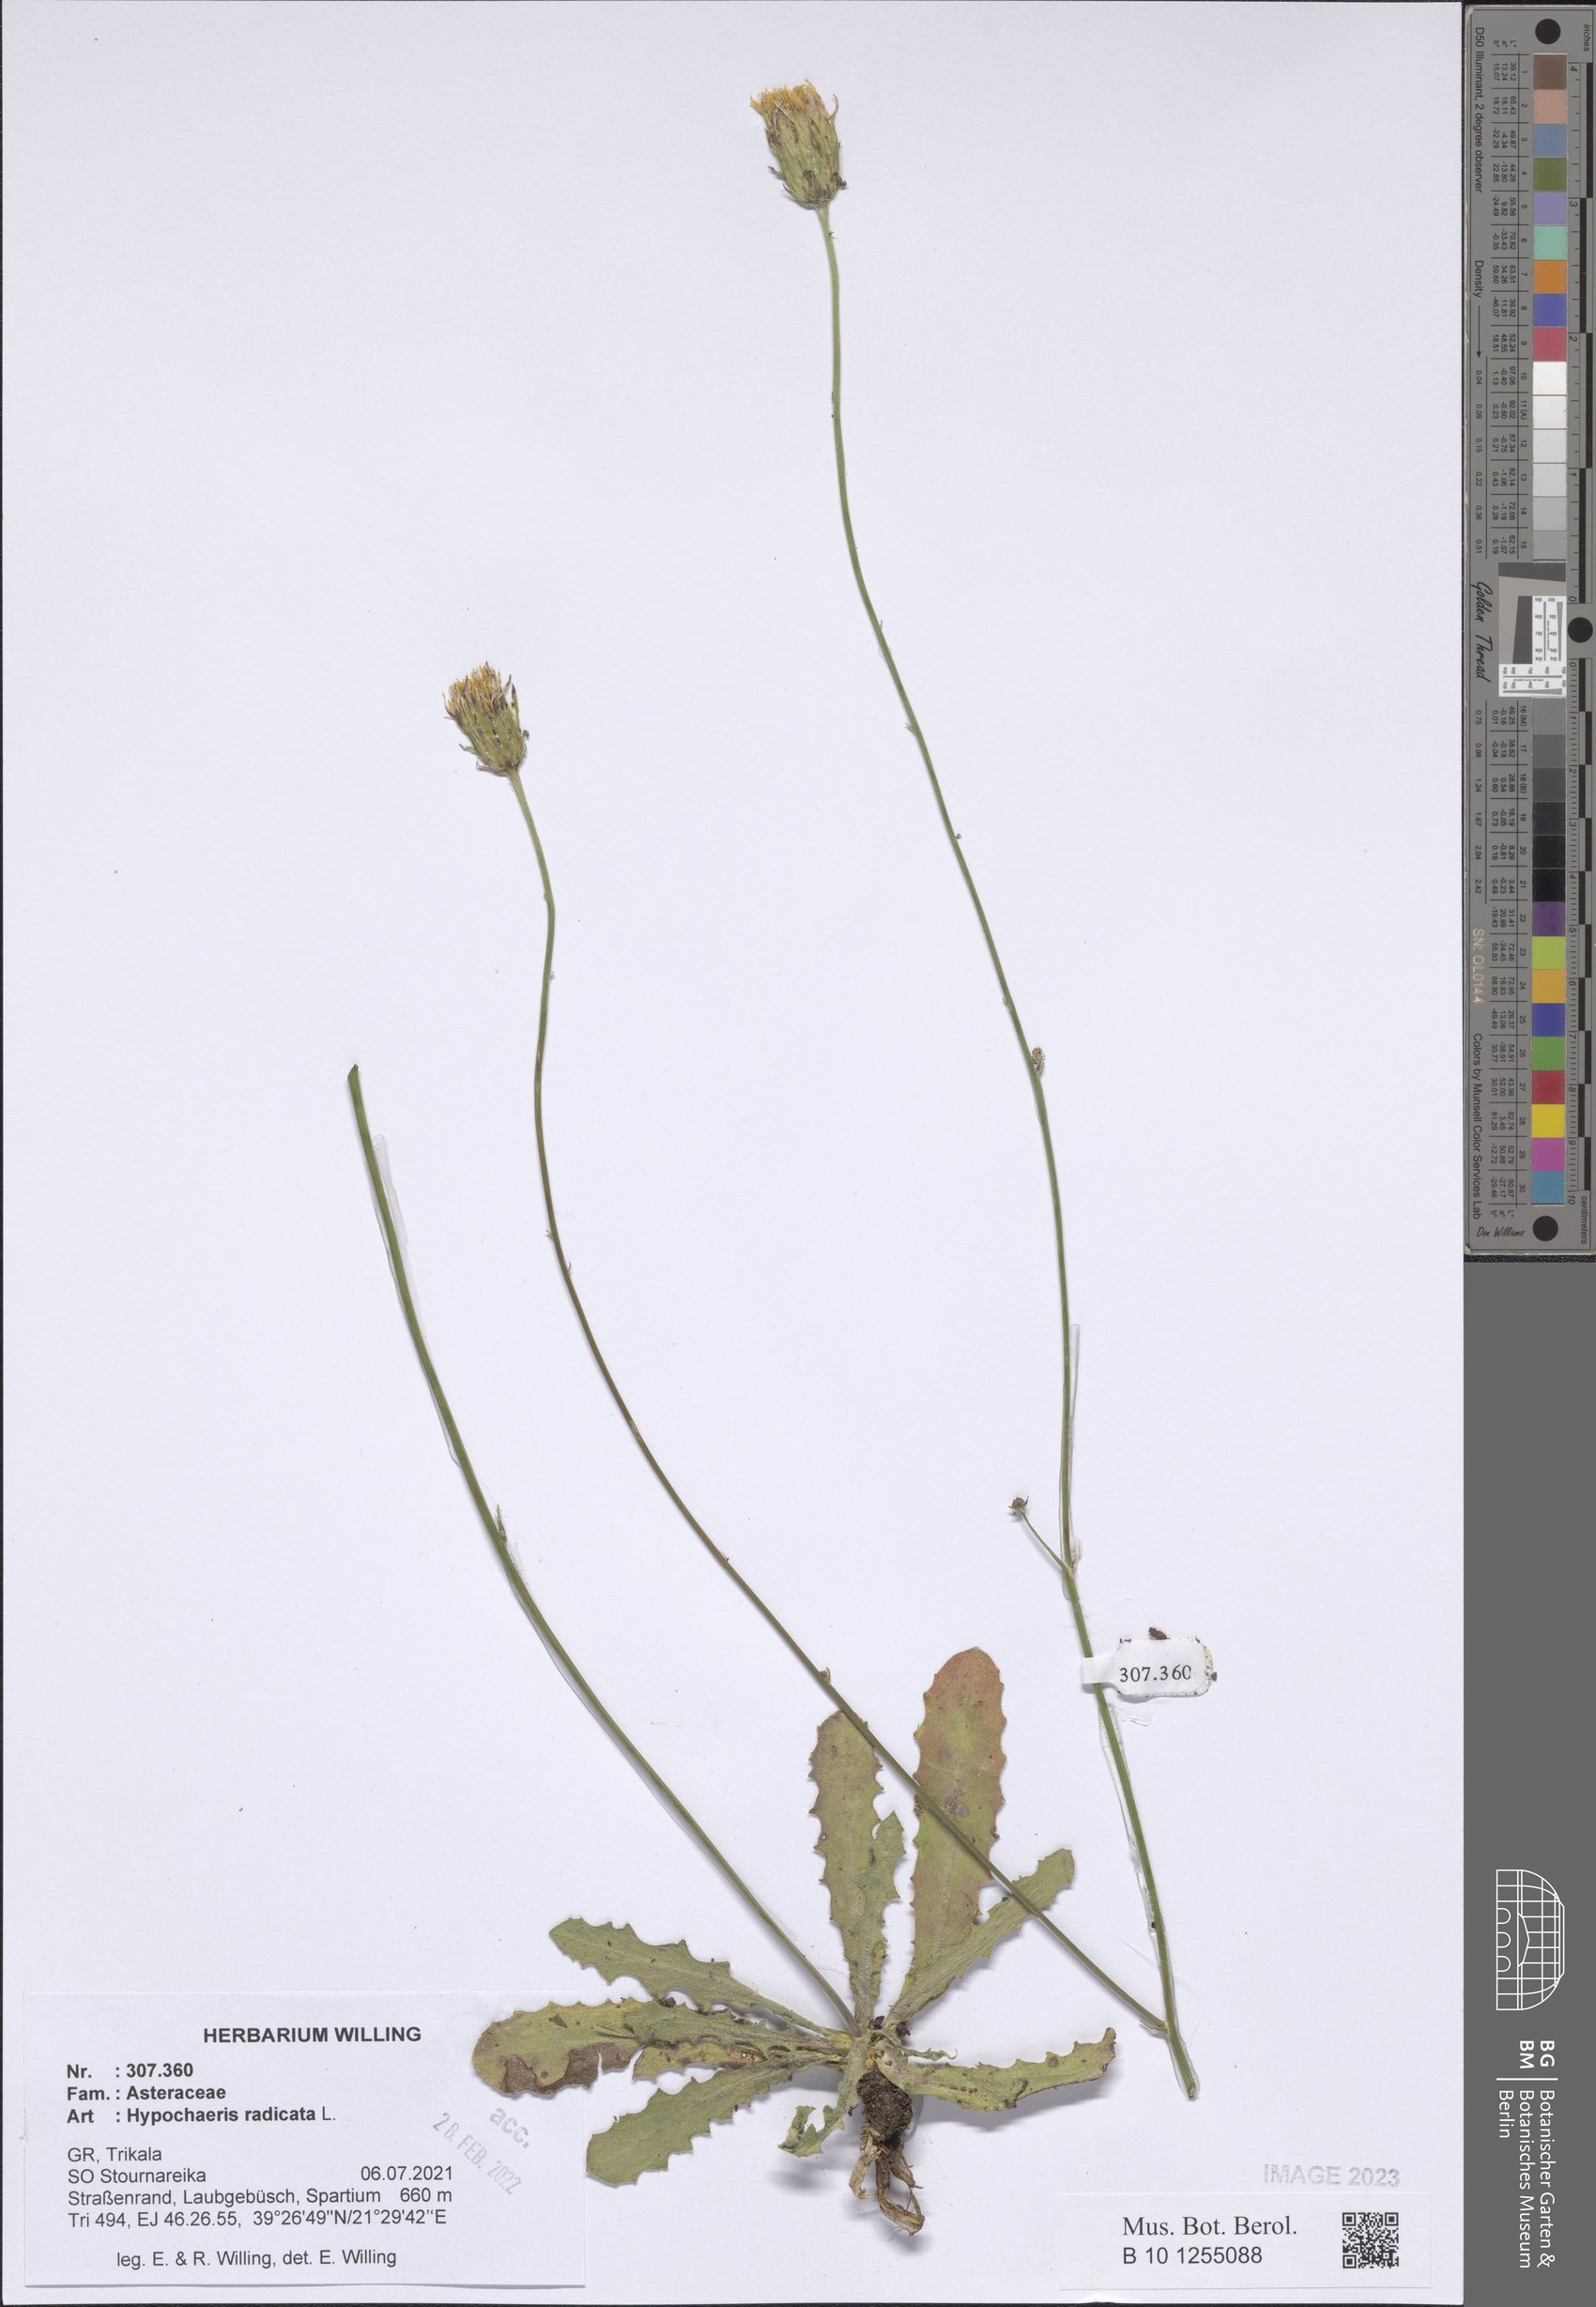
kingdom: Plantae
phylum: Tracheophyta
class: Magnoliopsida
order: Asterales
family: Asteraceae
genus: Hypochaeris
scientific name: Hypochaeris radicata
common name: Flatweed
